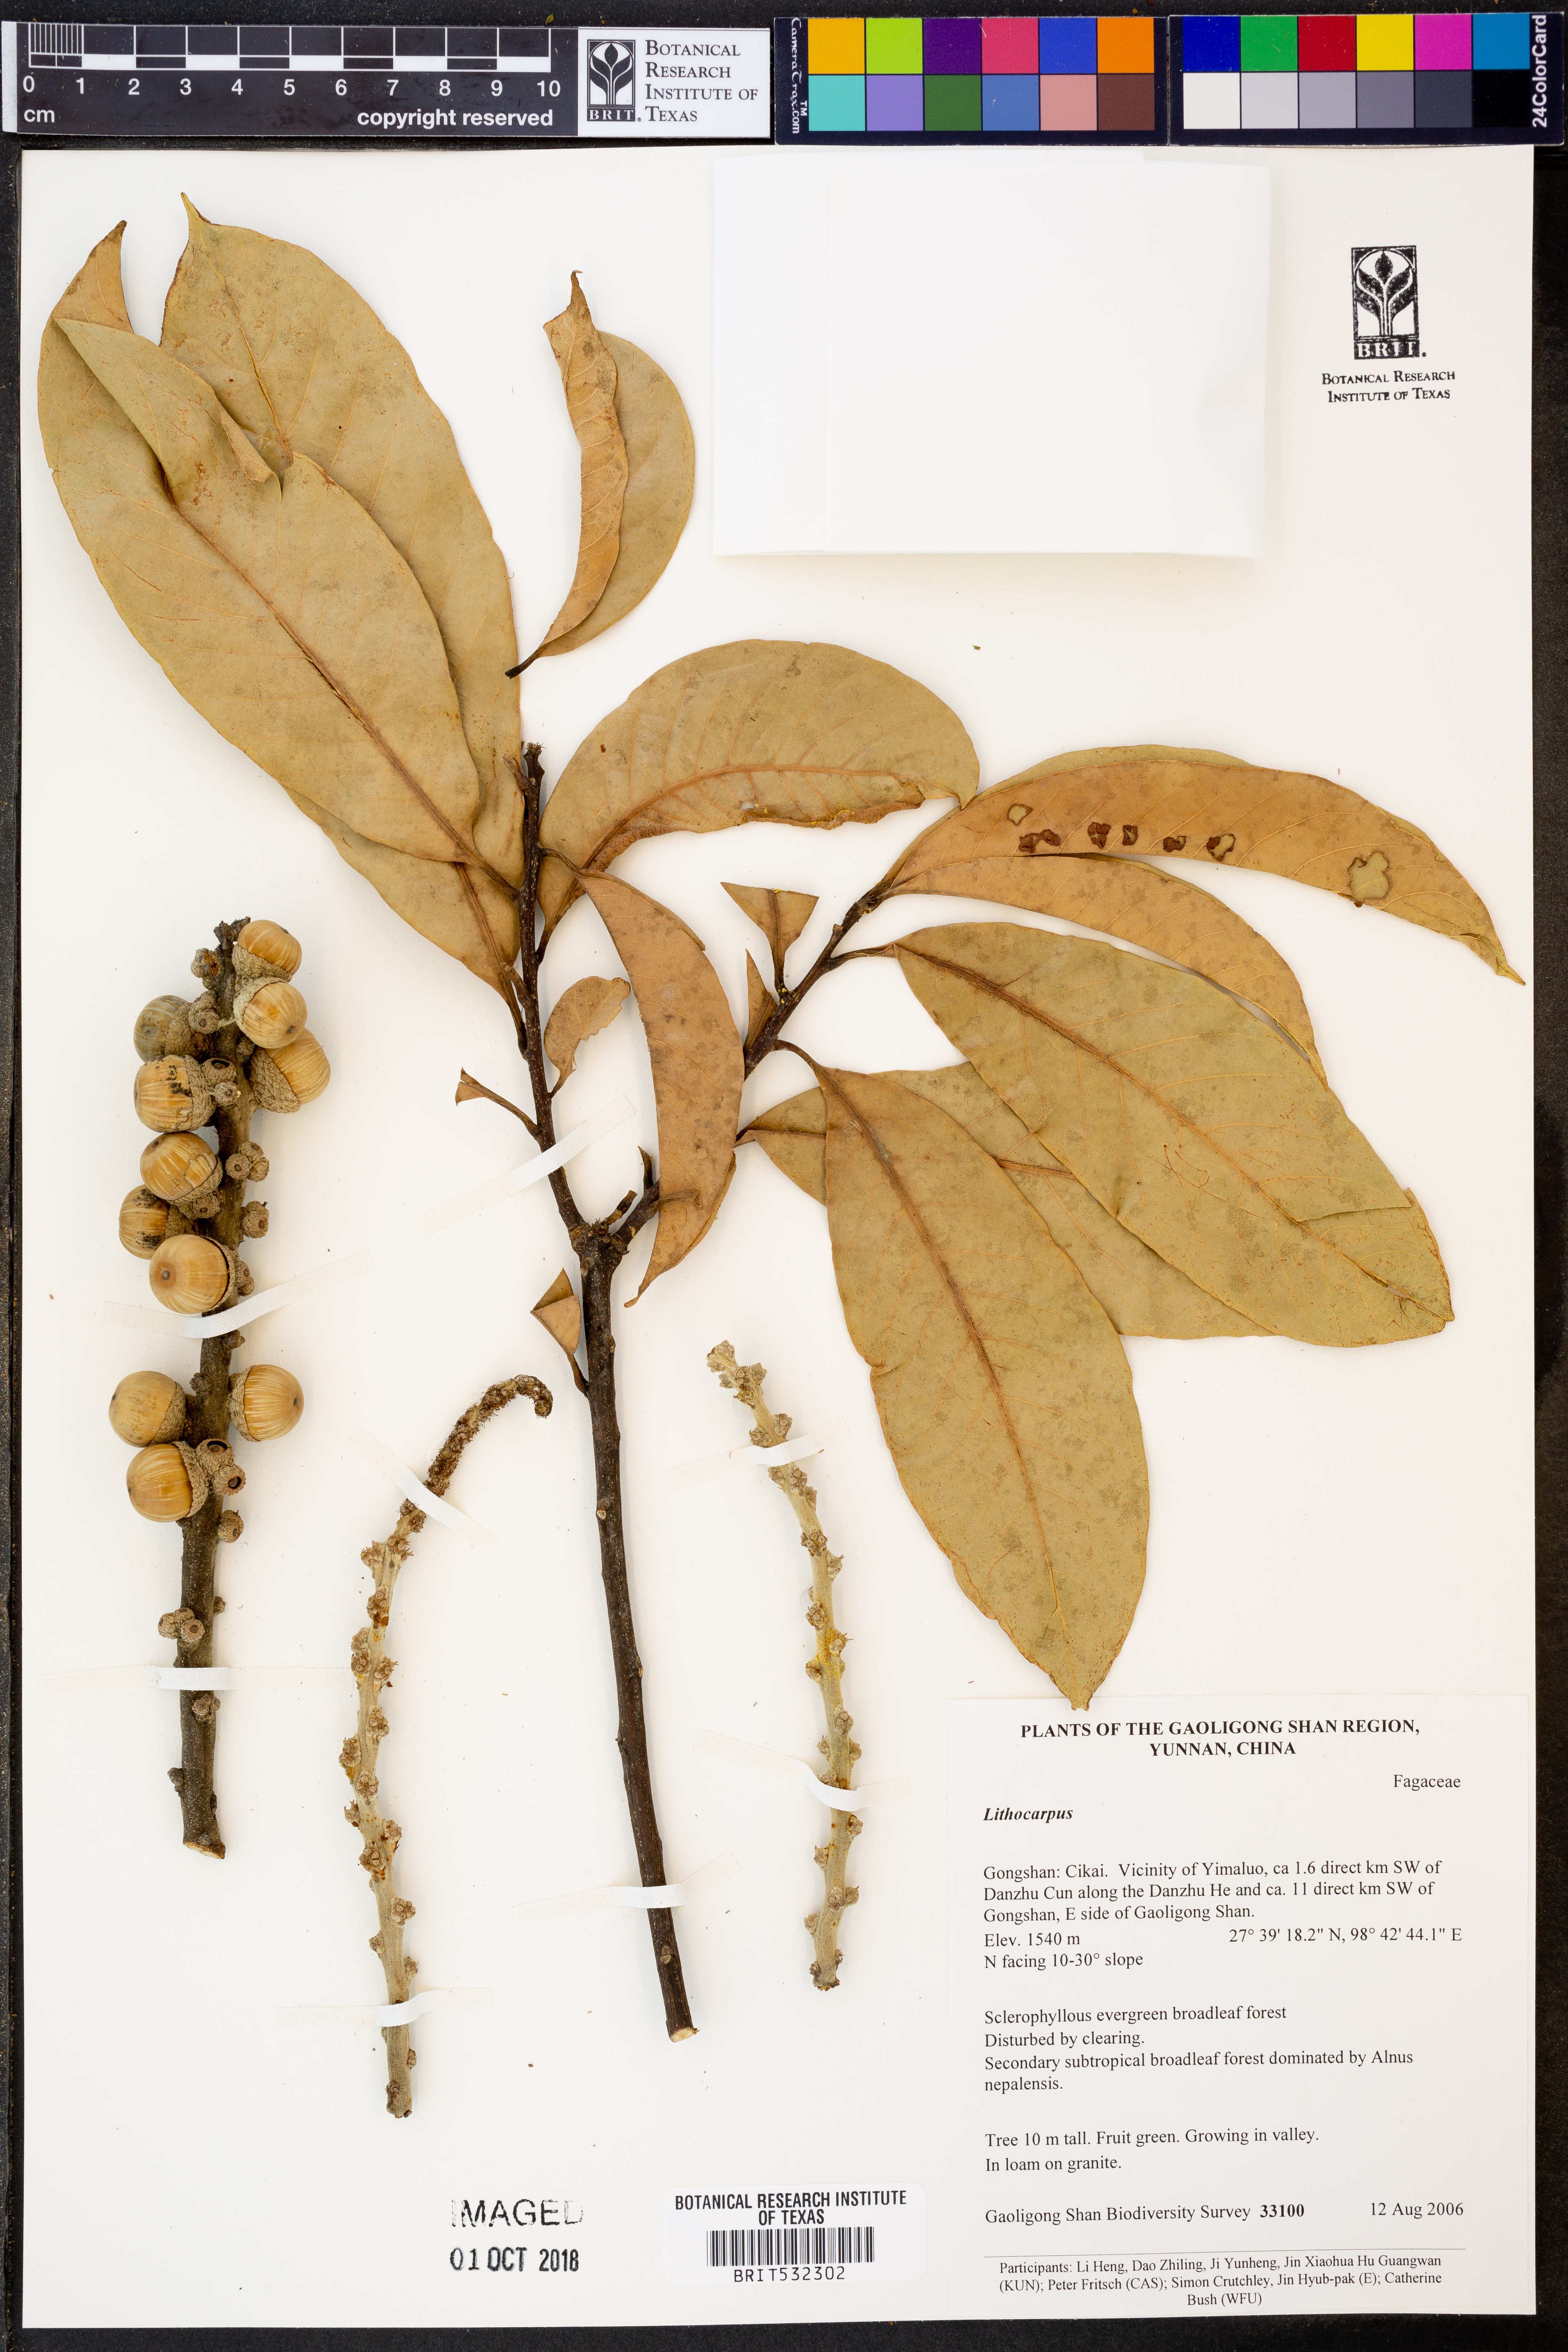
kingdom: Plantae
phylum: Tracheophyta
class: Magnoliopsida
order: Fagales
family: Fagaceae
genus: Lithocarpus
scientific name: Lithocarpus
